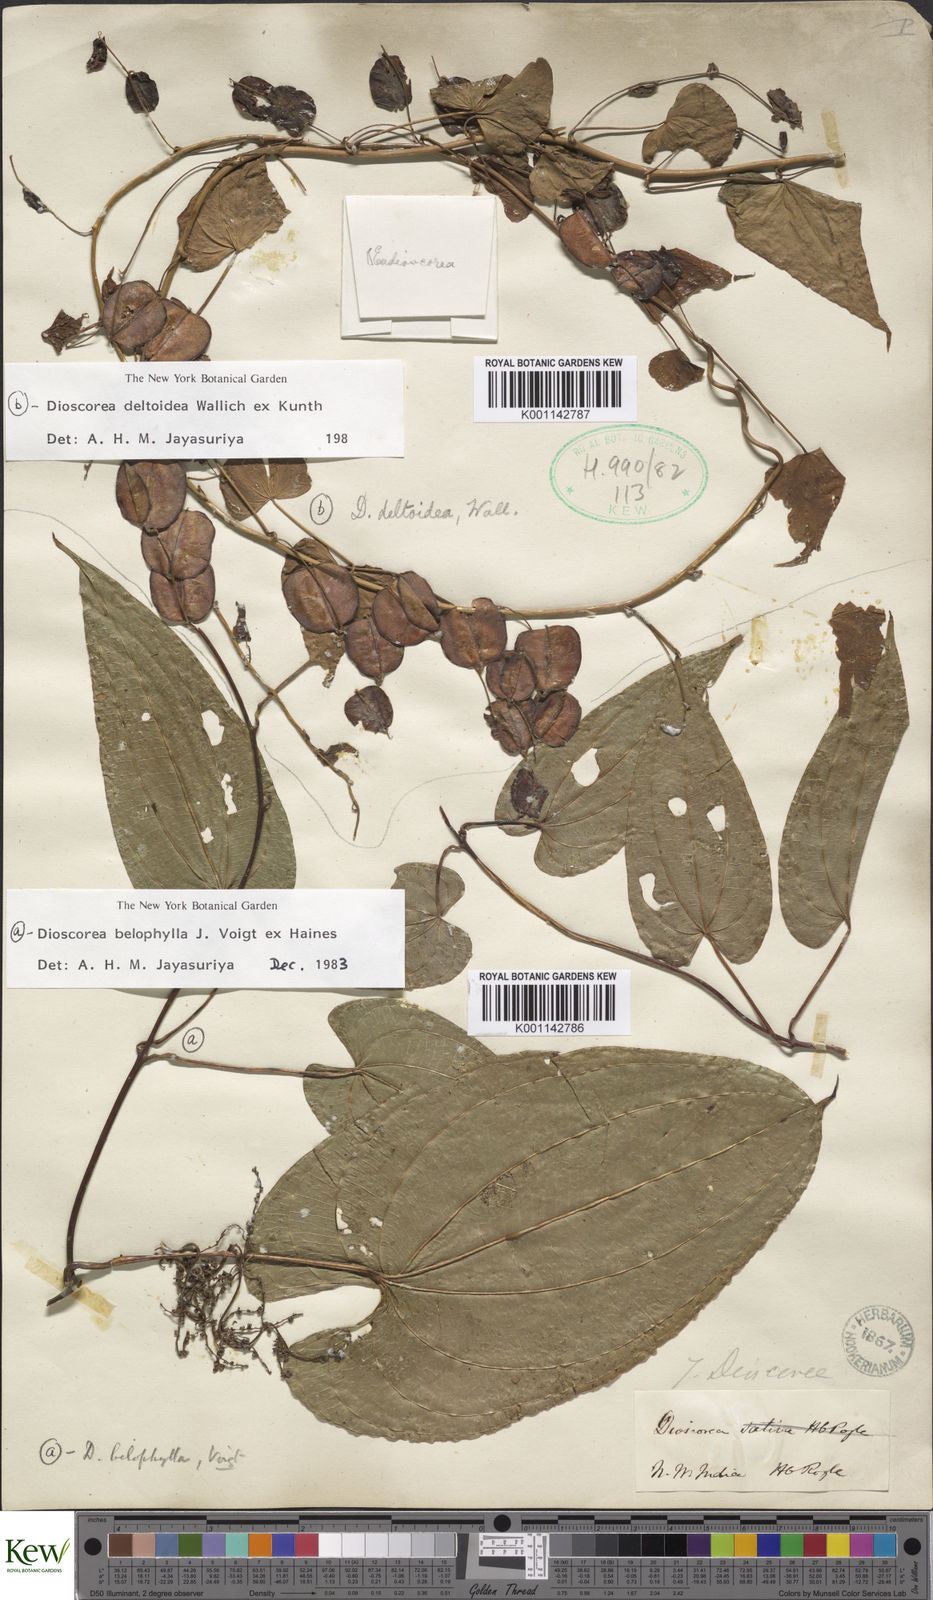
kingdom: Plantae
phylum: Tracheophyta
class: Liliopsida
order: Dioscoreales
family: Dioscoreaceae
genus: Dioscorea
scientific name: Dioscorea belophylla
